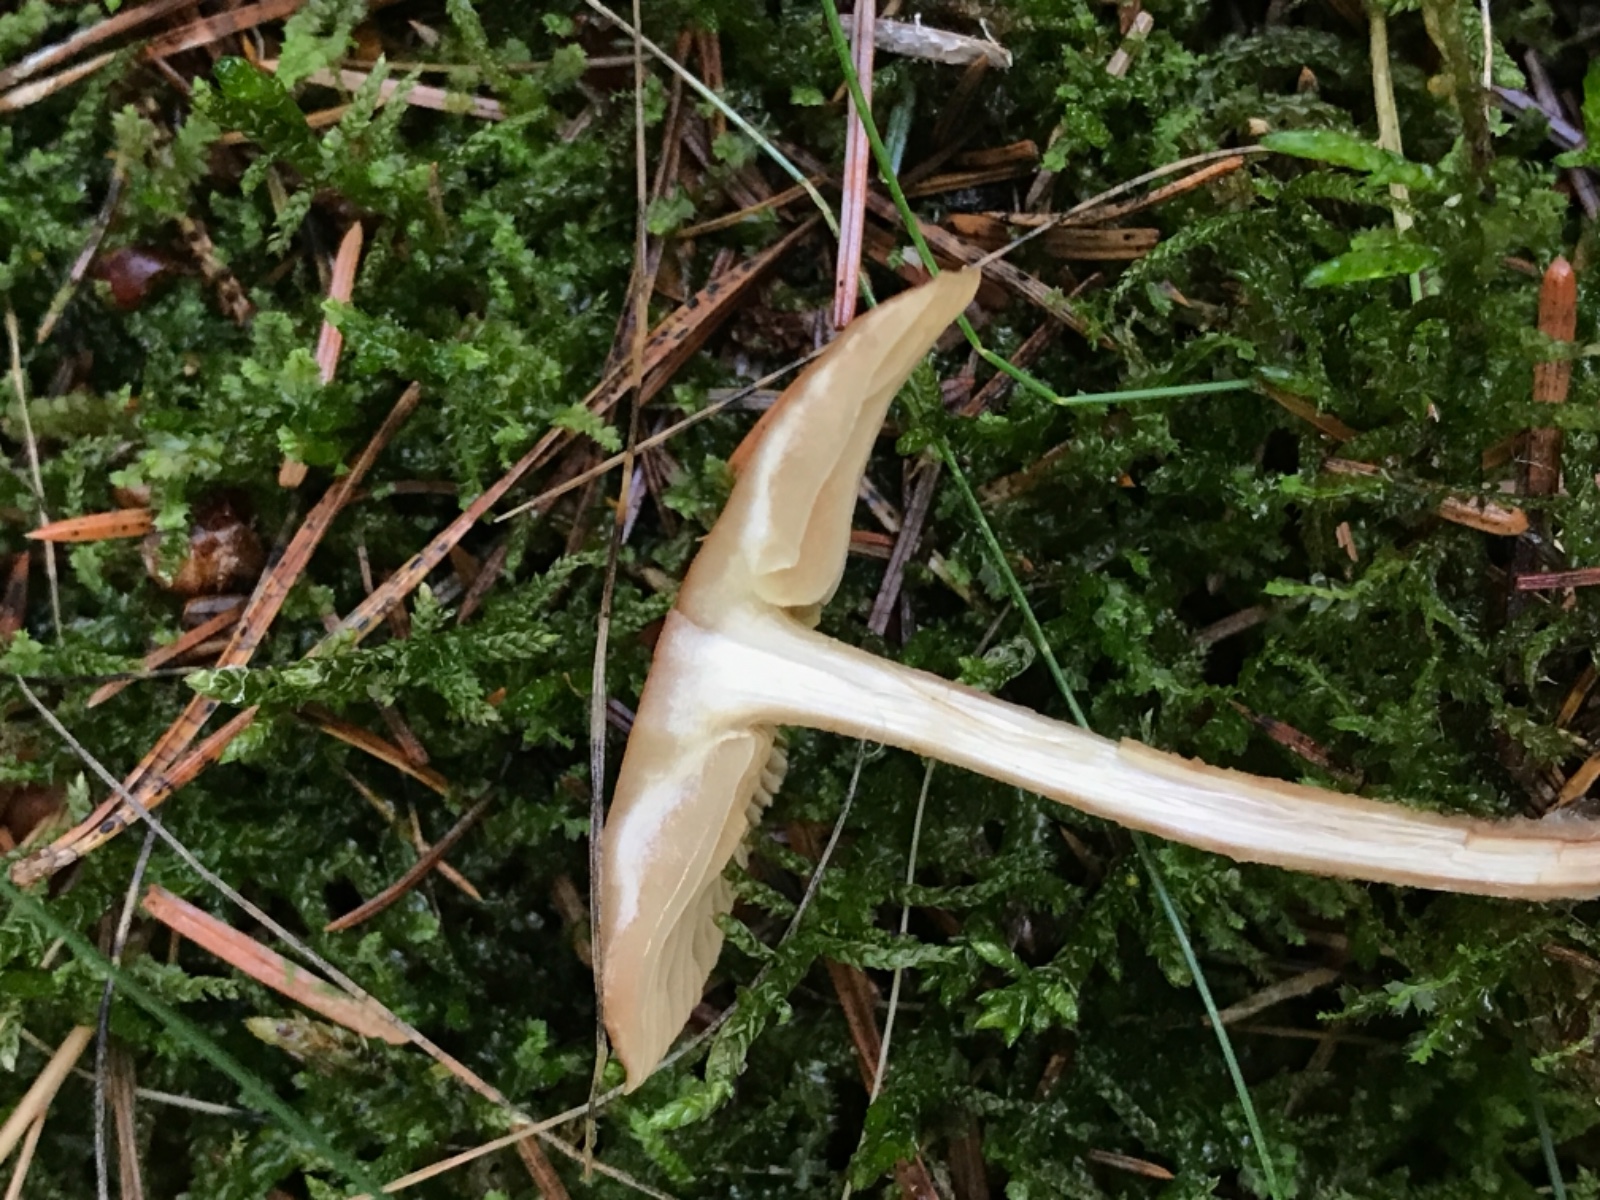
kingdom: Fungi
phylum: Basidiomycota
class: Agaricomycetes
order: Agaricales
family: Omphalotaceae
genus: Collybiopsis
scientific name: Collybiopsis peronata
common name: bestøvlet fladhat
